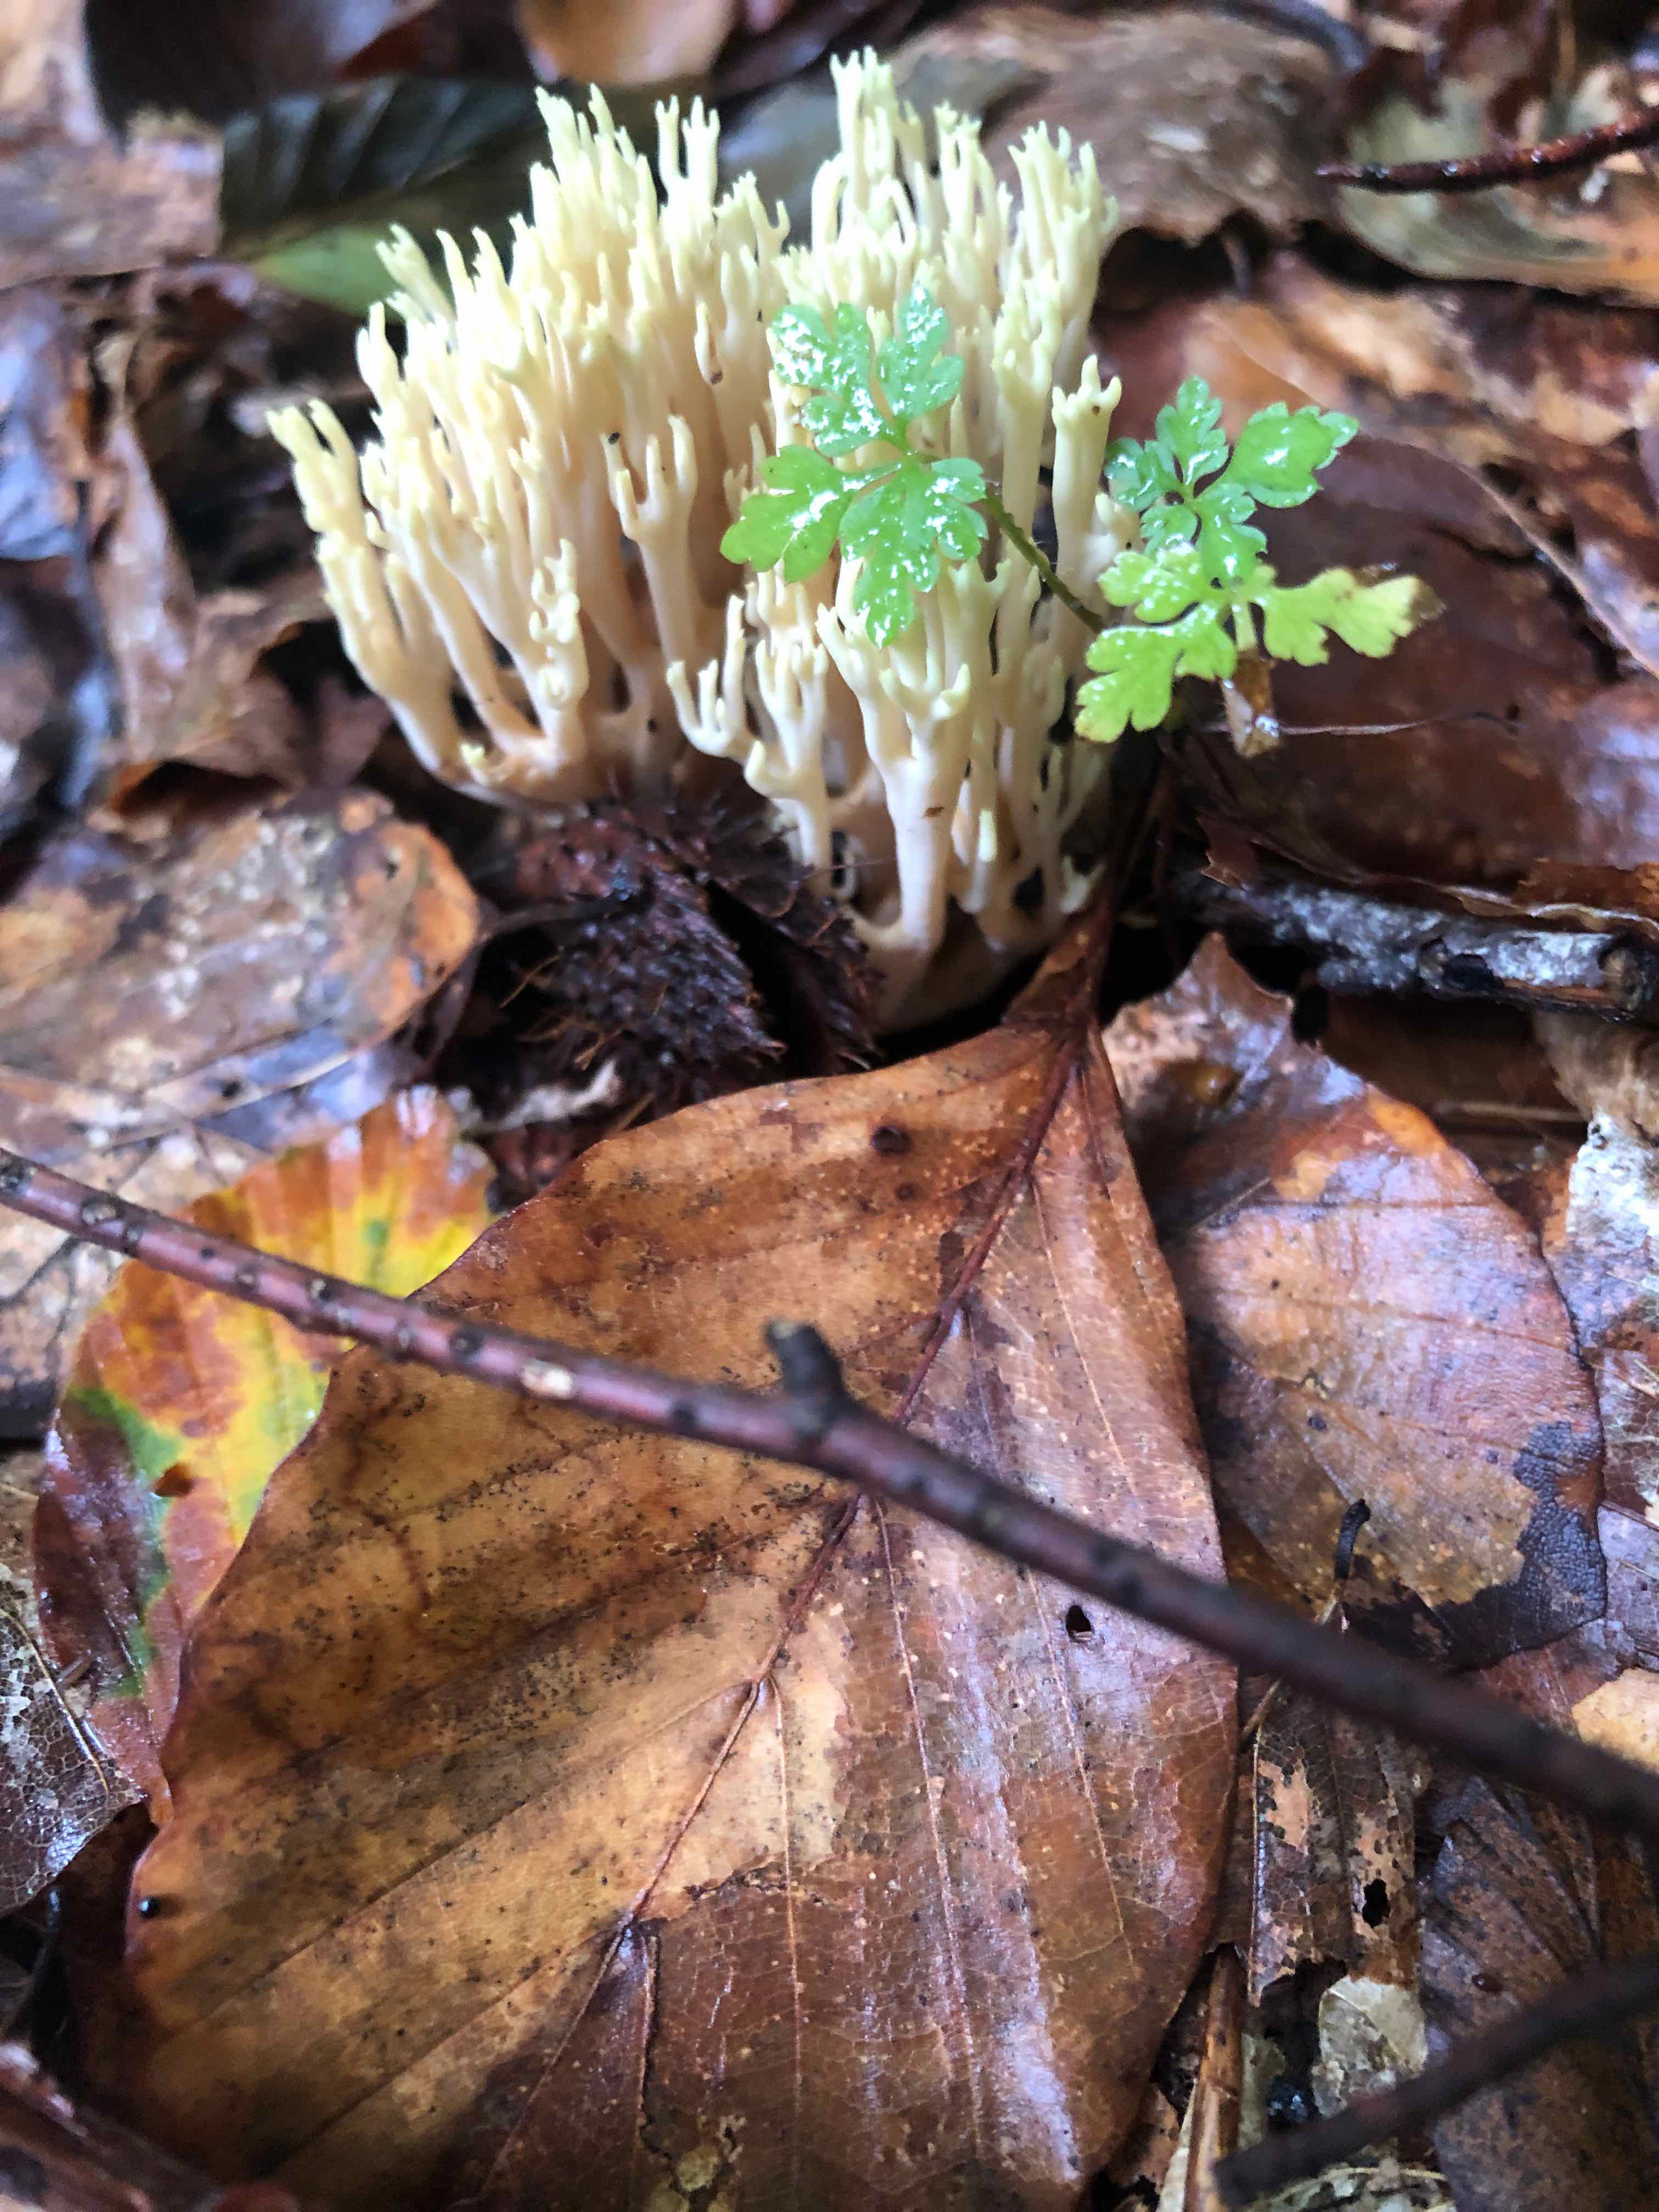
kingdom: Fungi
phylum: Basidiomycota
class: Agaricomycetes
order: Gomphales
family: Gomphaceae
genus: Ramaria
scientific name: Ramaria stricta
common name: rank koralsvamp
